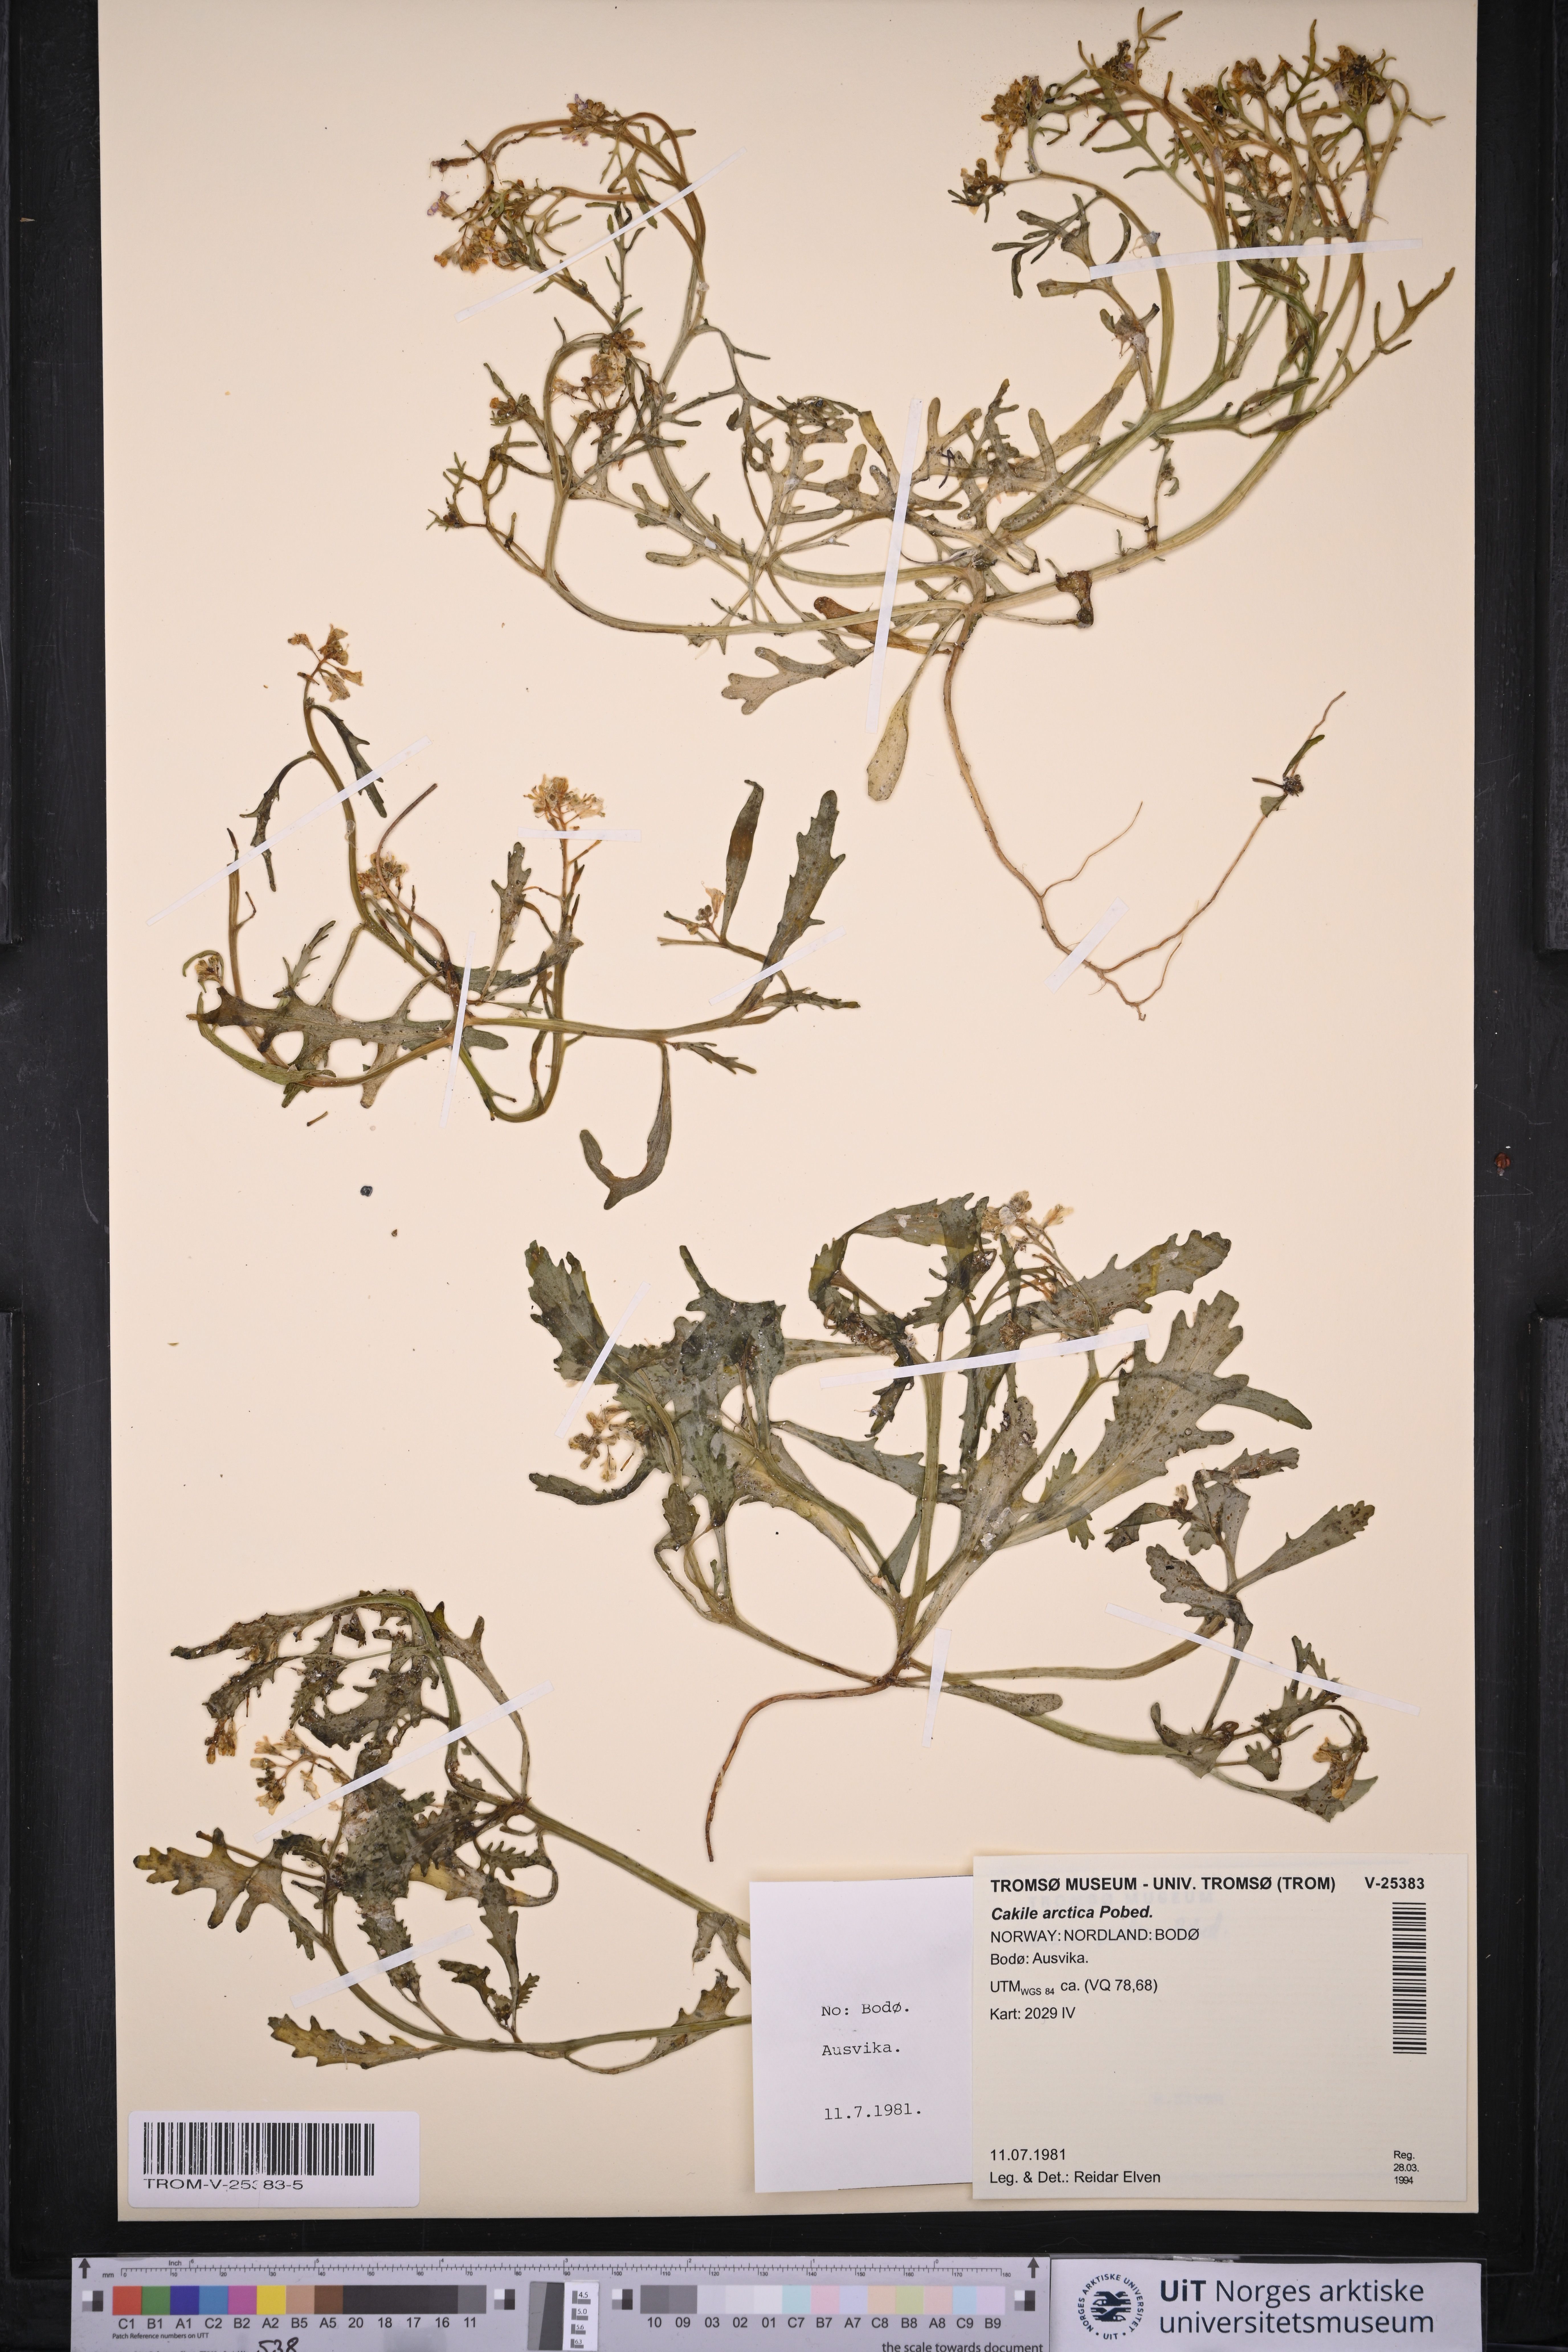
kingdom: Plantae
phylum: Tracheophyta
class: Magnoliopsida
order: Brassicales
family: Brassicaceae
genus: Cakile
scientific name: Cakile arctica
